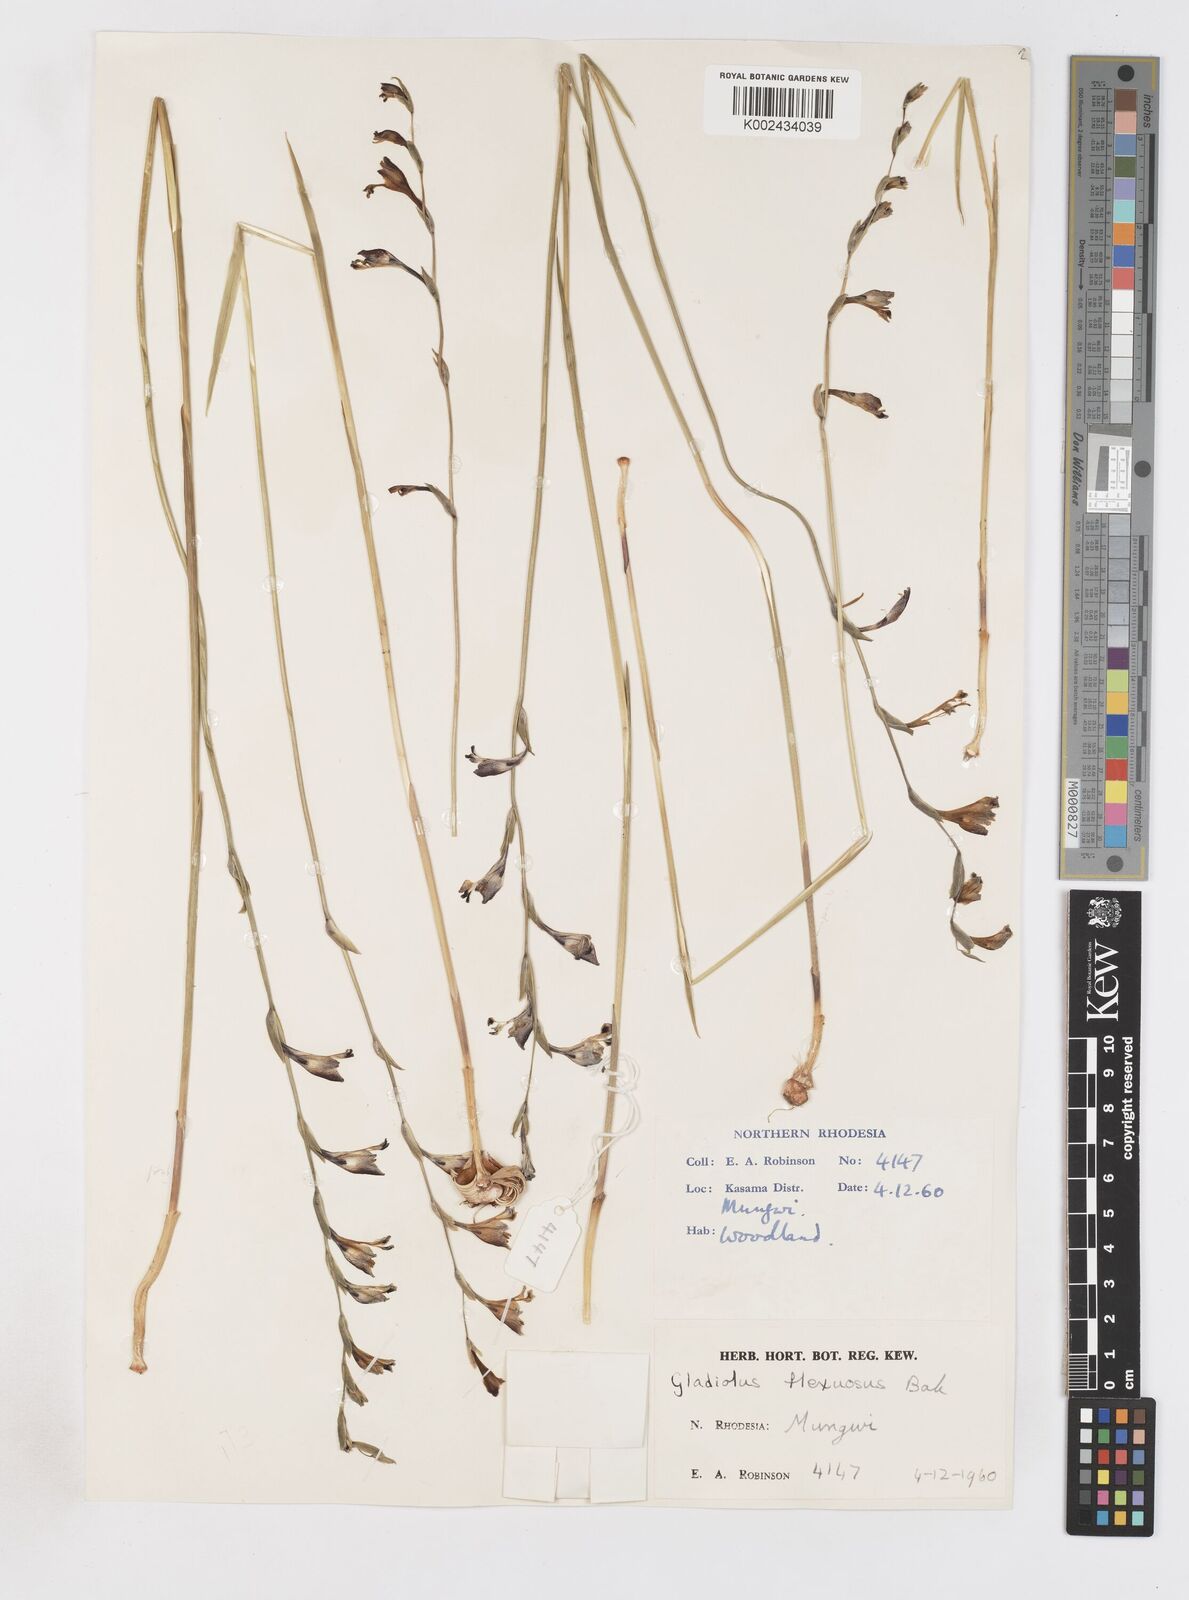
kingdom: Plantae
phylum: Tracheophyta
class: Liliopsida
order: Asparagales
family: Iridaceae
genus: Gladiolus
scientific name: Gladiolus atropurpureus
